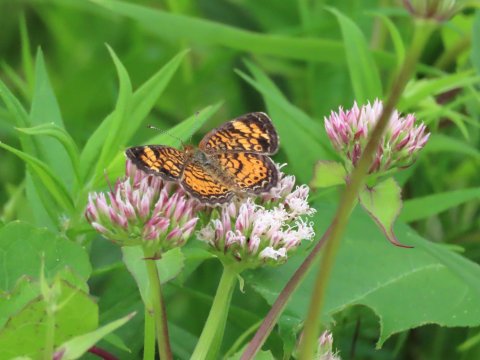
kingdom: Animalia
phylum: Arthropoda
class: Insecta
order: Lepidoptera
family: Nymphalidae
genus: Phyciodes
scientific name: Phyciodes tharos
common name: Pearl Crescent
